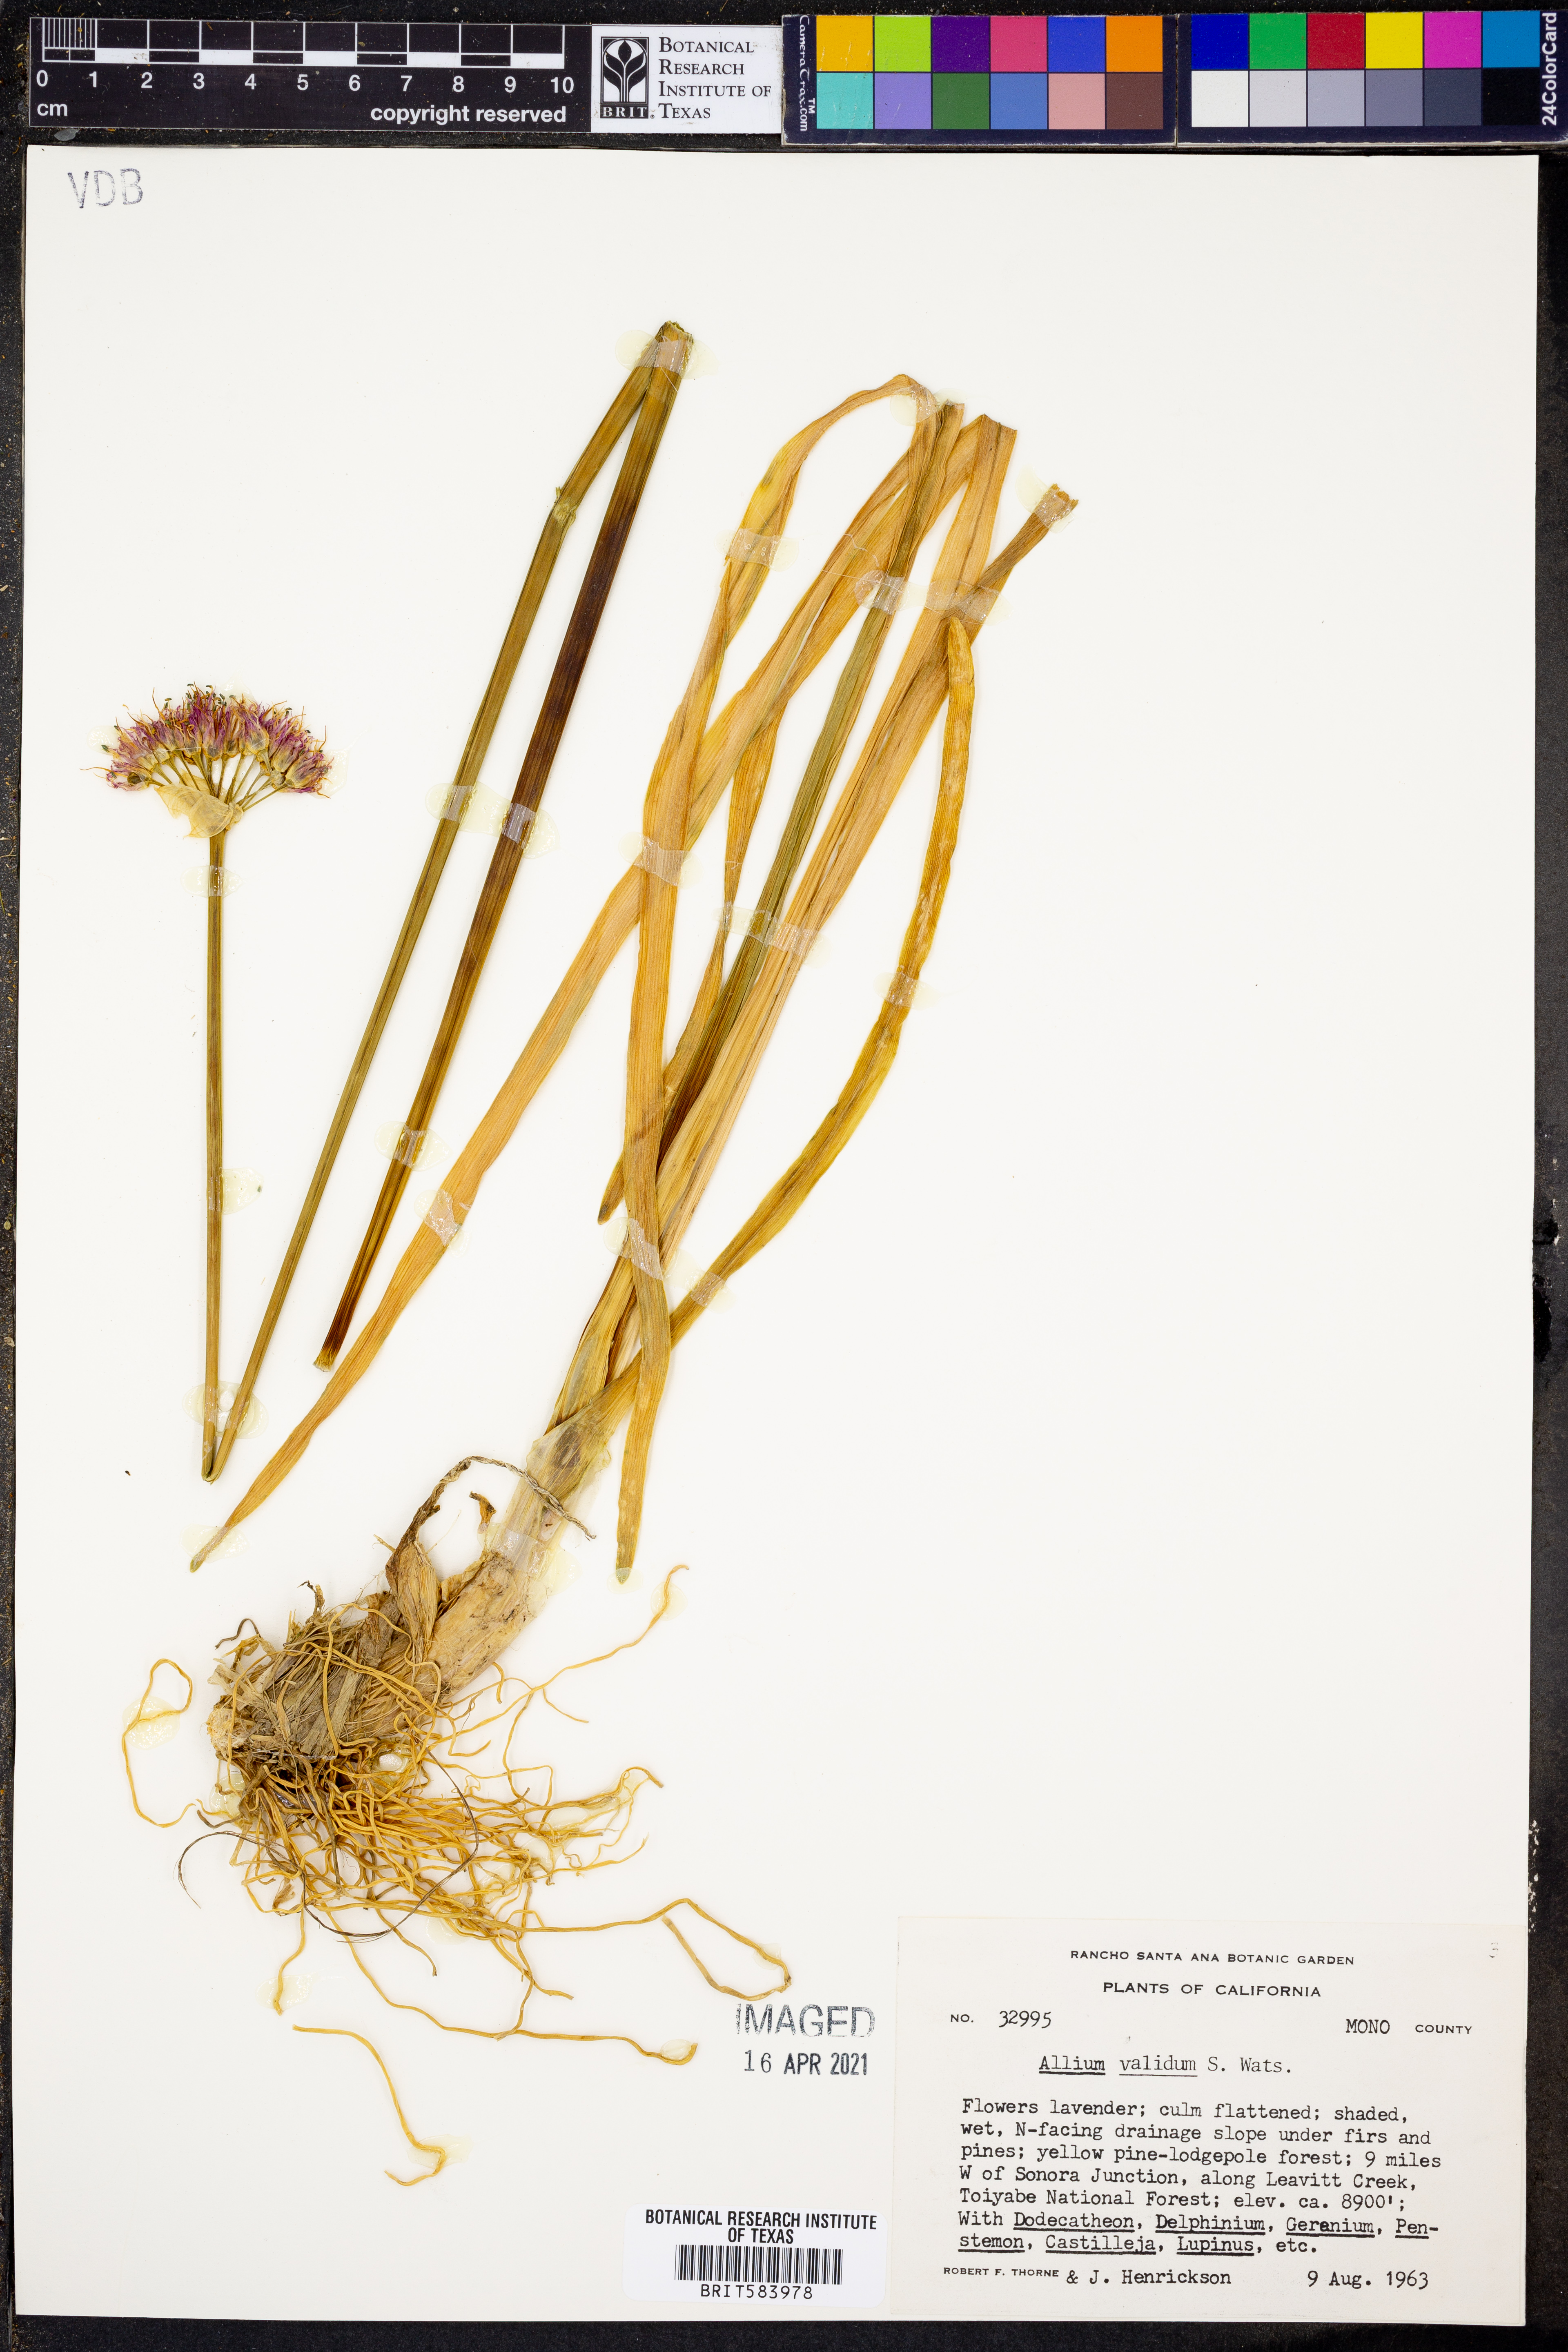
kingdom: Plantae
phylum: Tracheophyta
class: Liliopsida
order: Asparagales
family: Amaryllidaceae
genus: Allium
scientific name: Allium validum
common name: Pacific mountain onion
